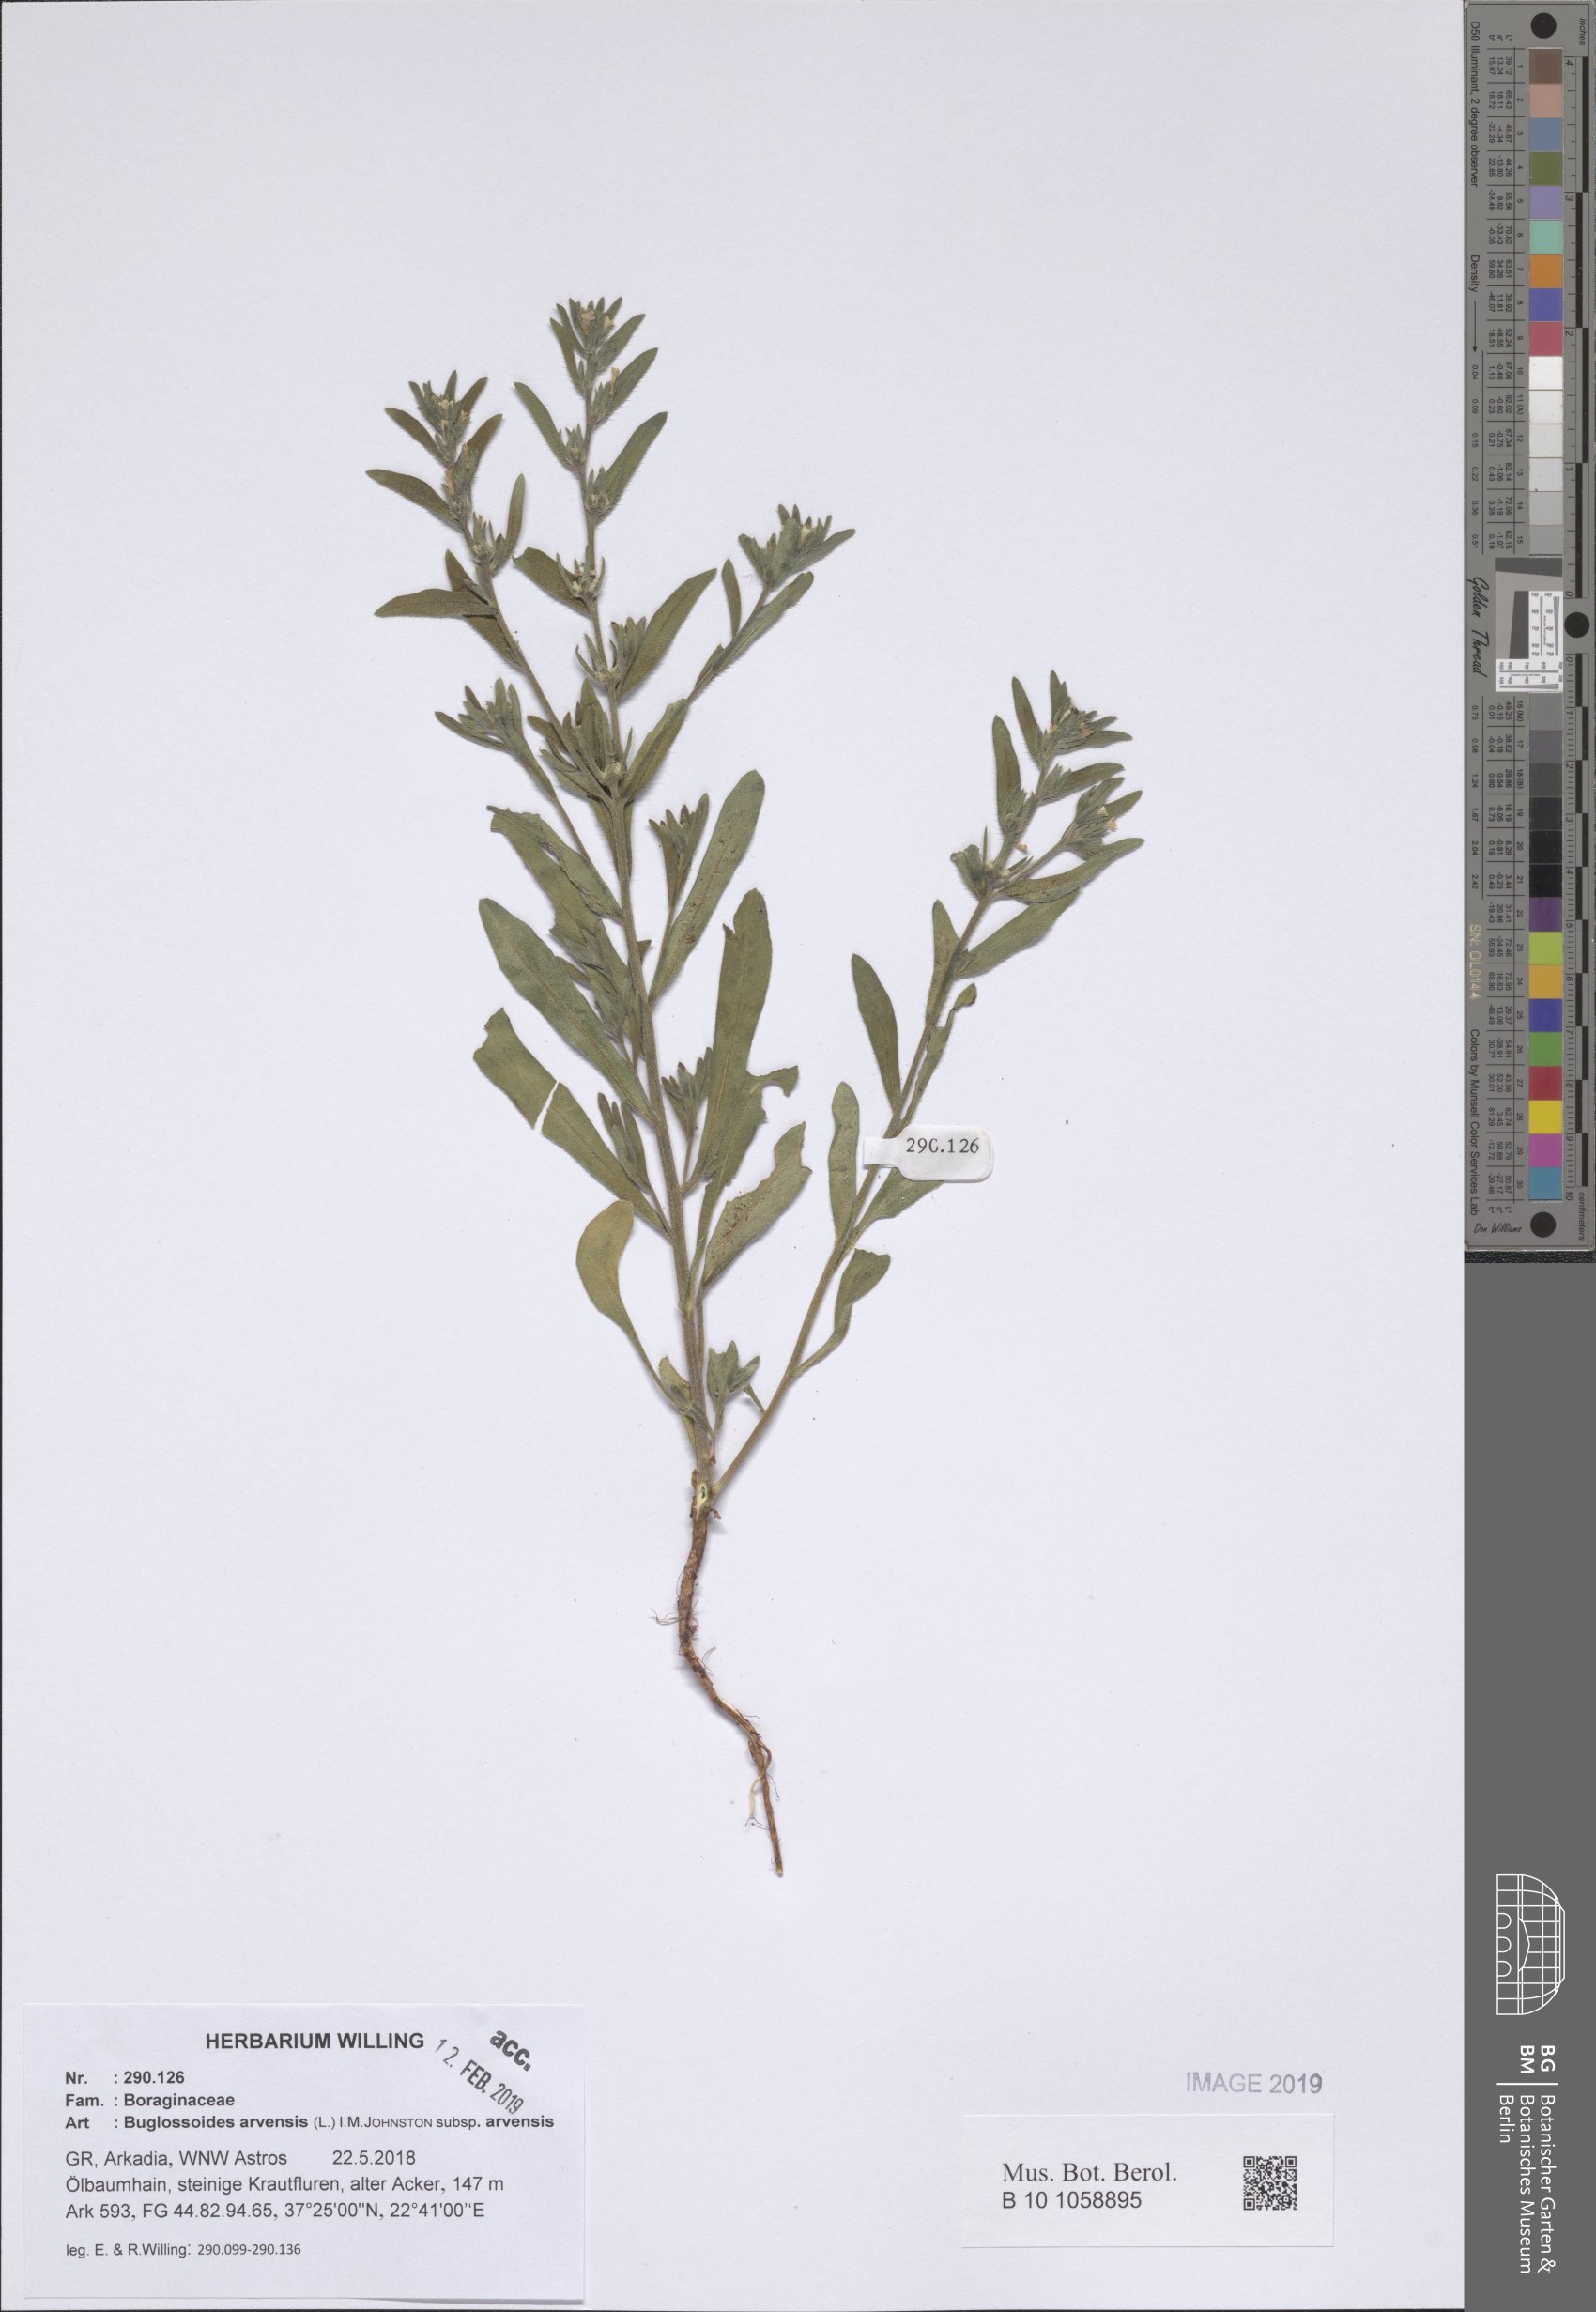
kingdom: Plantae
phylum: Tracheophyta
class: Magnoliopsida
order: Boraginales
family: Boraginaceae
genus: Buglossoides
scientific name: Buglossoides arvensis
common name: Corn gromwell
